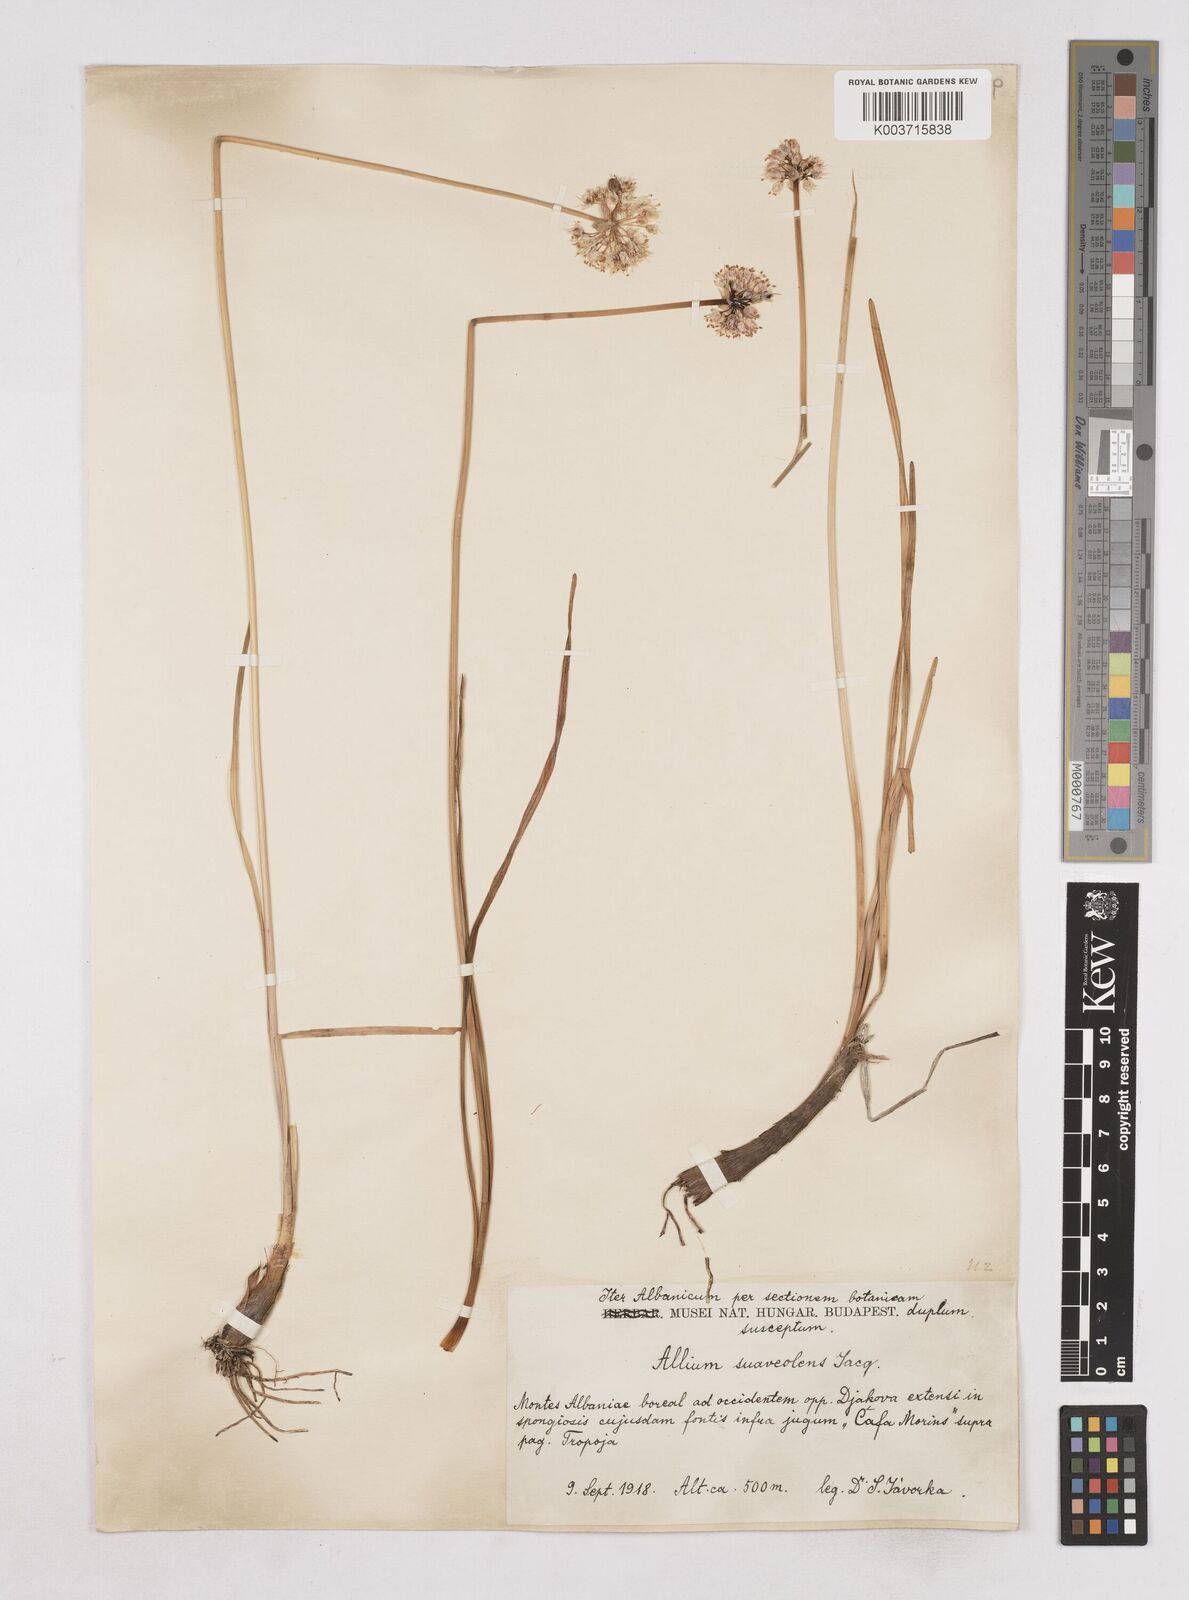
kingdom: Plantae
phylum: Tracheophyta
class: Liliopsida
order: Asparagales
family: Amaryllidaceae
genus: Allium
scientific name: Allium suaveolens
